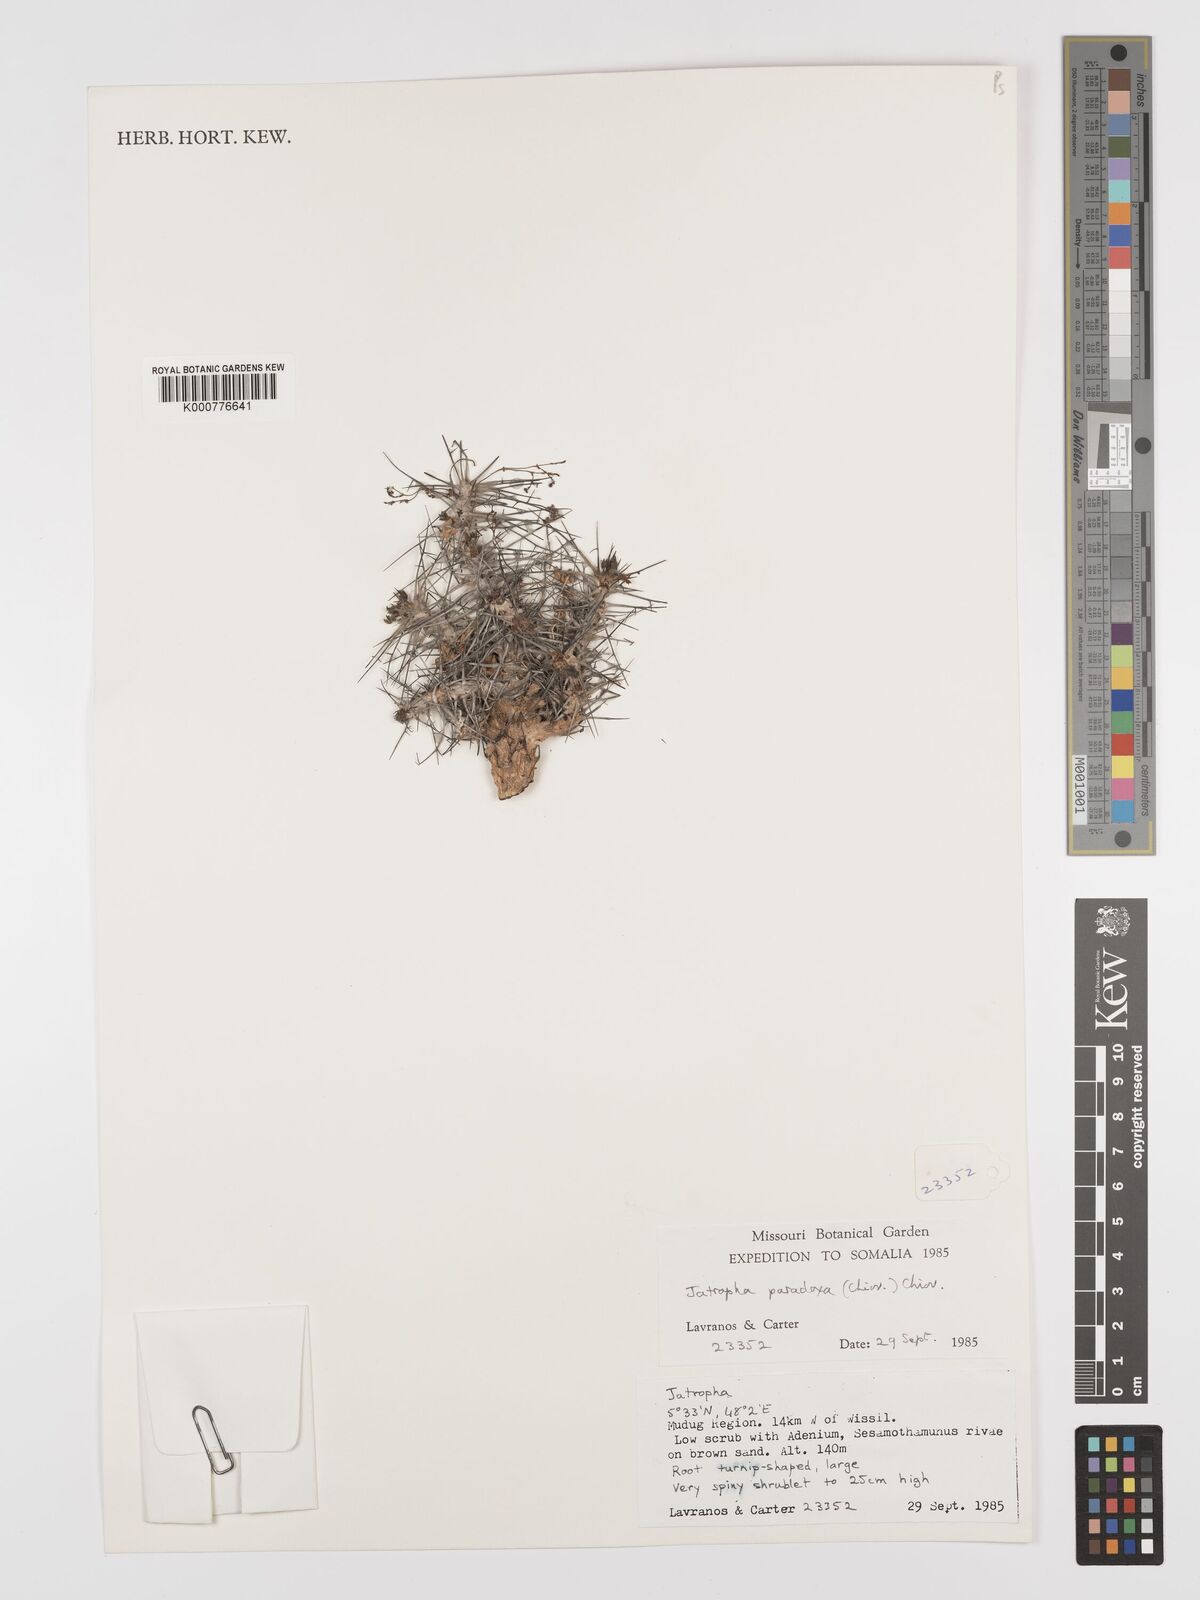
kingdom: Plantae
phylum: Tracheophyta
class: Magnoliopsida
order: Malpighiales
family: Euphorbiaceae
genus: Jatropha
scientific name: Jatropha paradoxa
